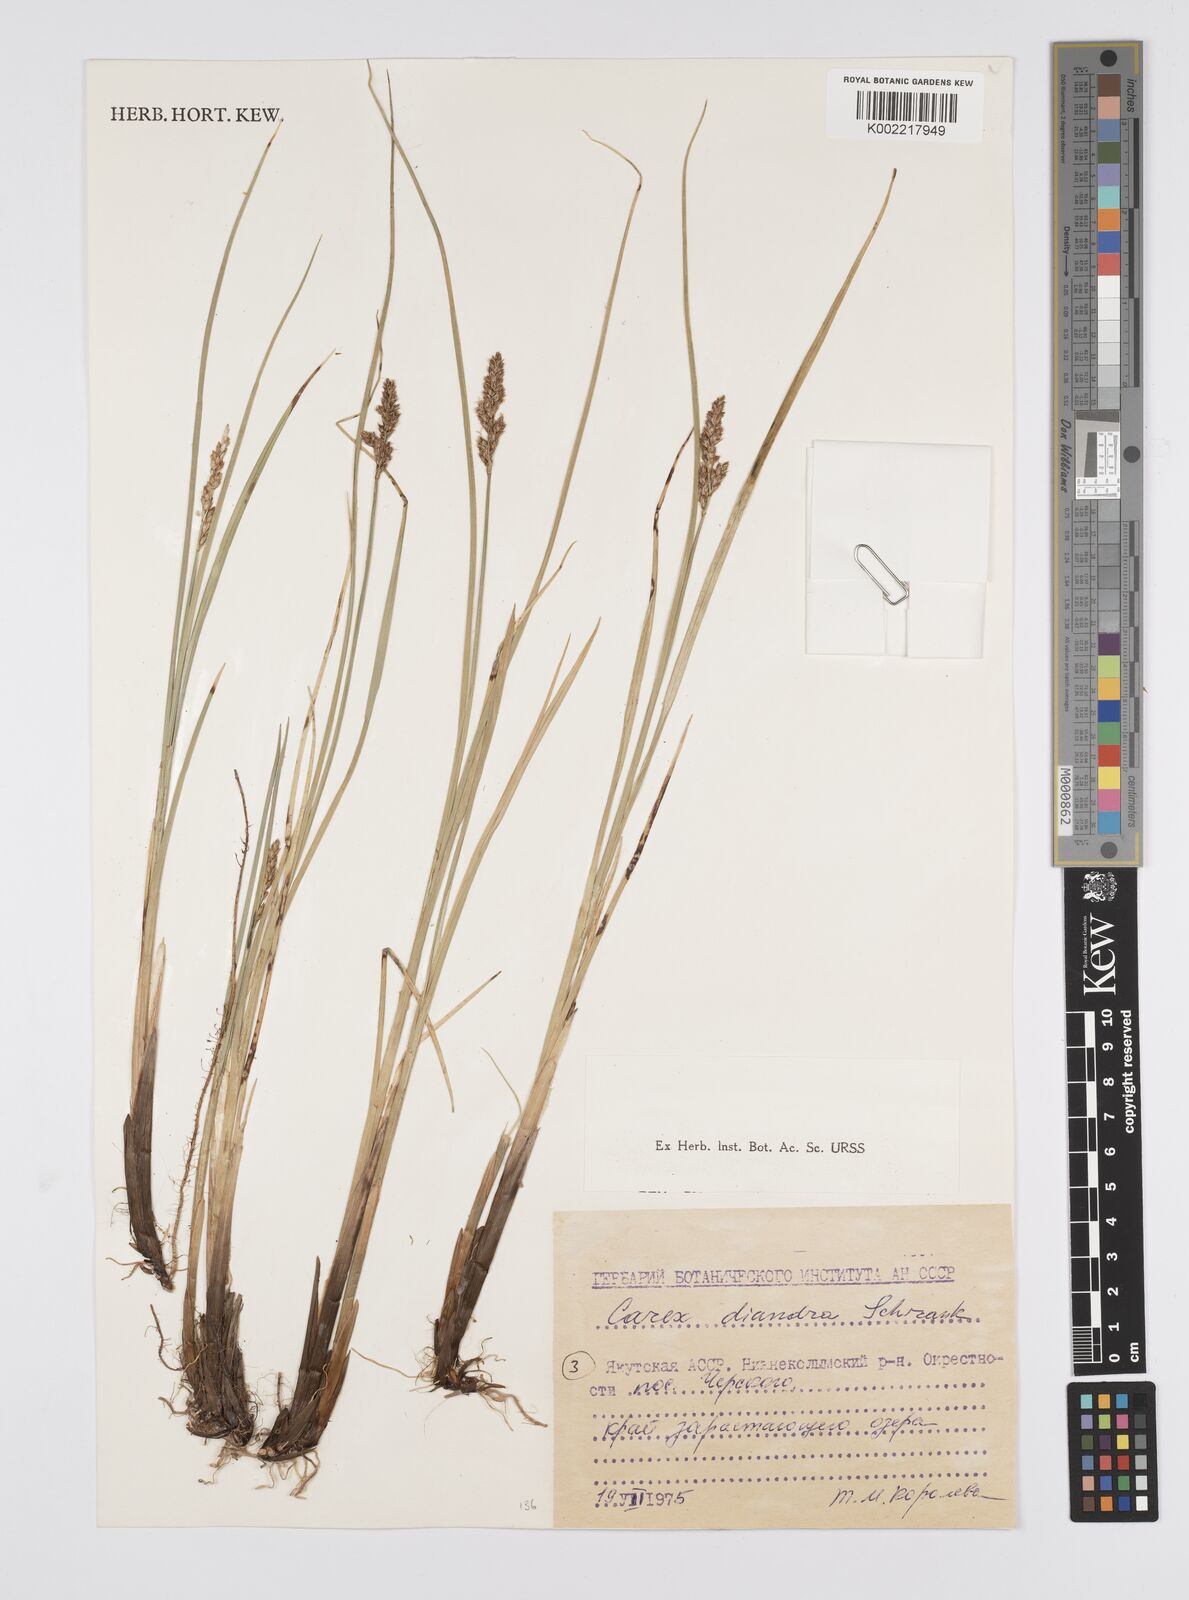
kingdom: Plantae
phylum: Tracheophyta
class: Liliopsida
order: Poales
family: Cyperaceae
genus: Carex
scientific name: Carex diandra
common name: Lesser tussock-sedge
